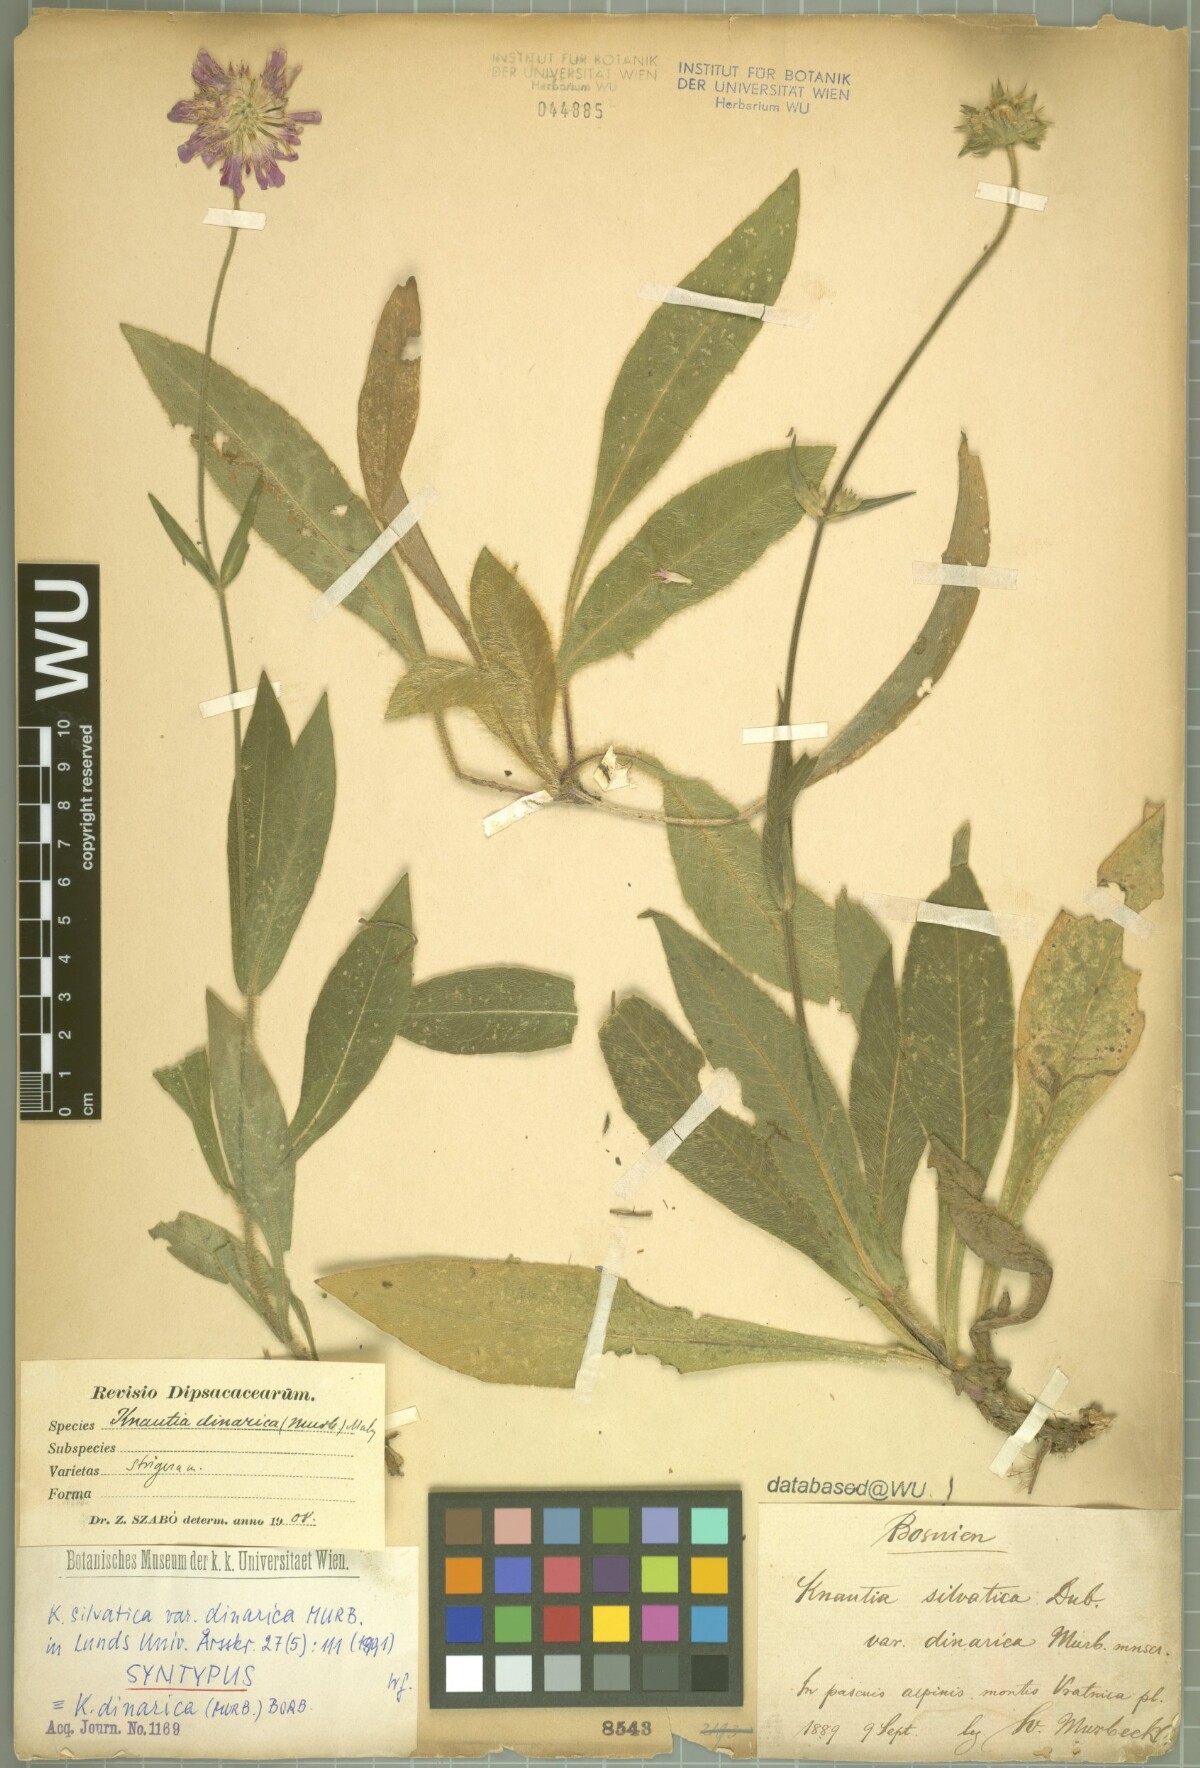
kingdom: Plantae
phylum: Tracheophyta
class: Magnoliopsida
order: Dipsacales
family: Caprifoliaceae
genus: Knautia
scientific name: Knautia dinarica
